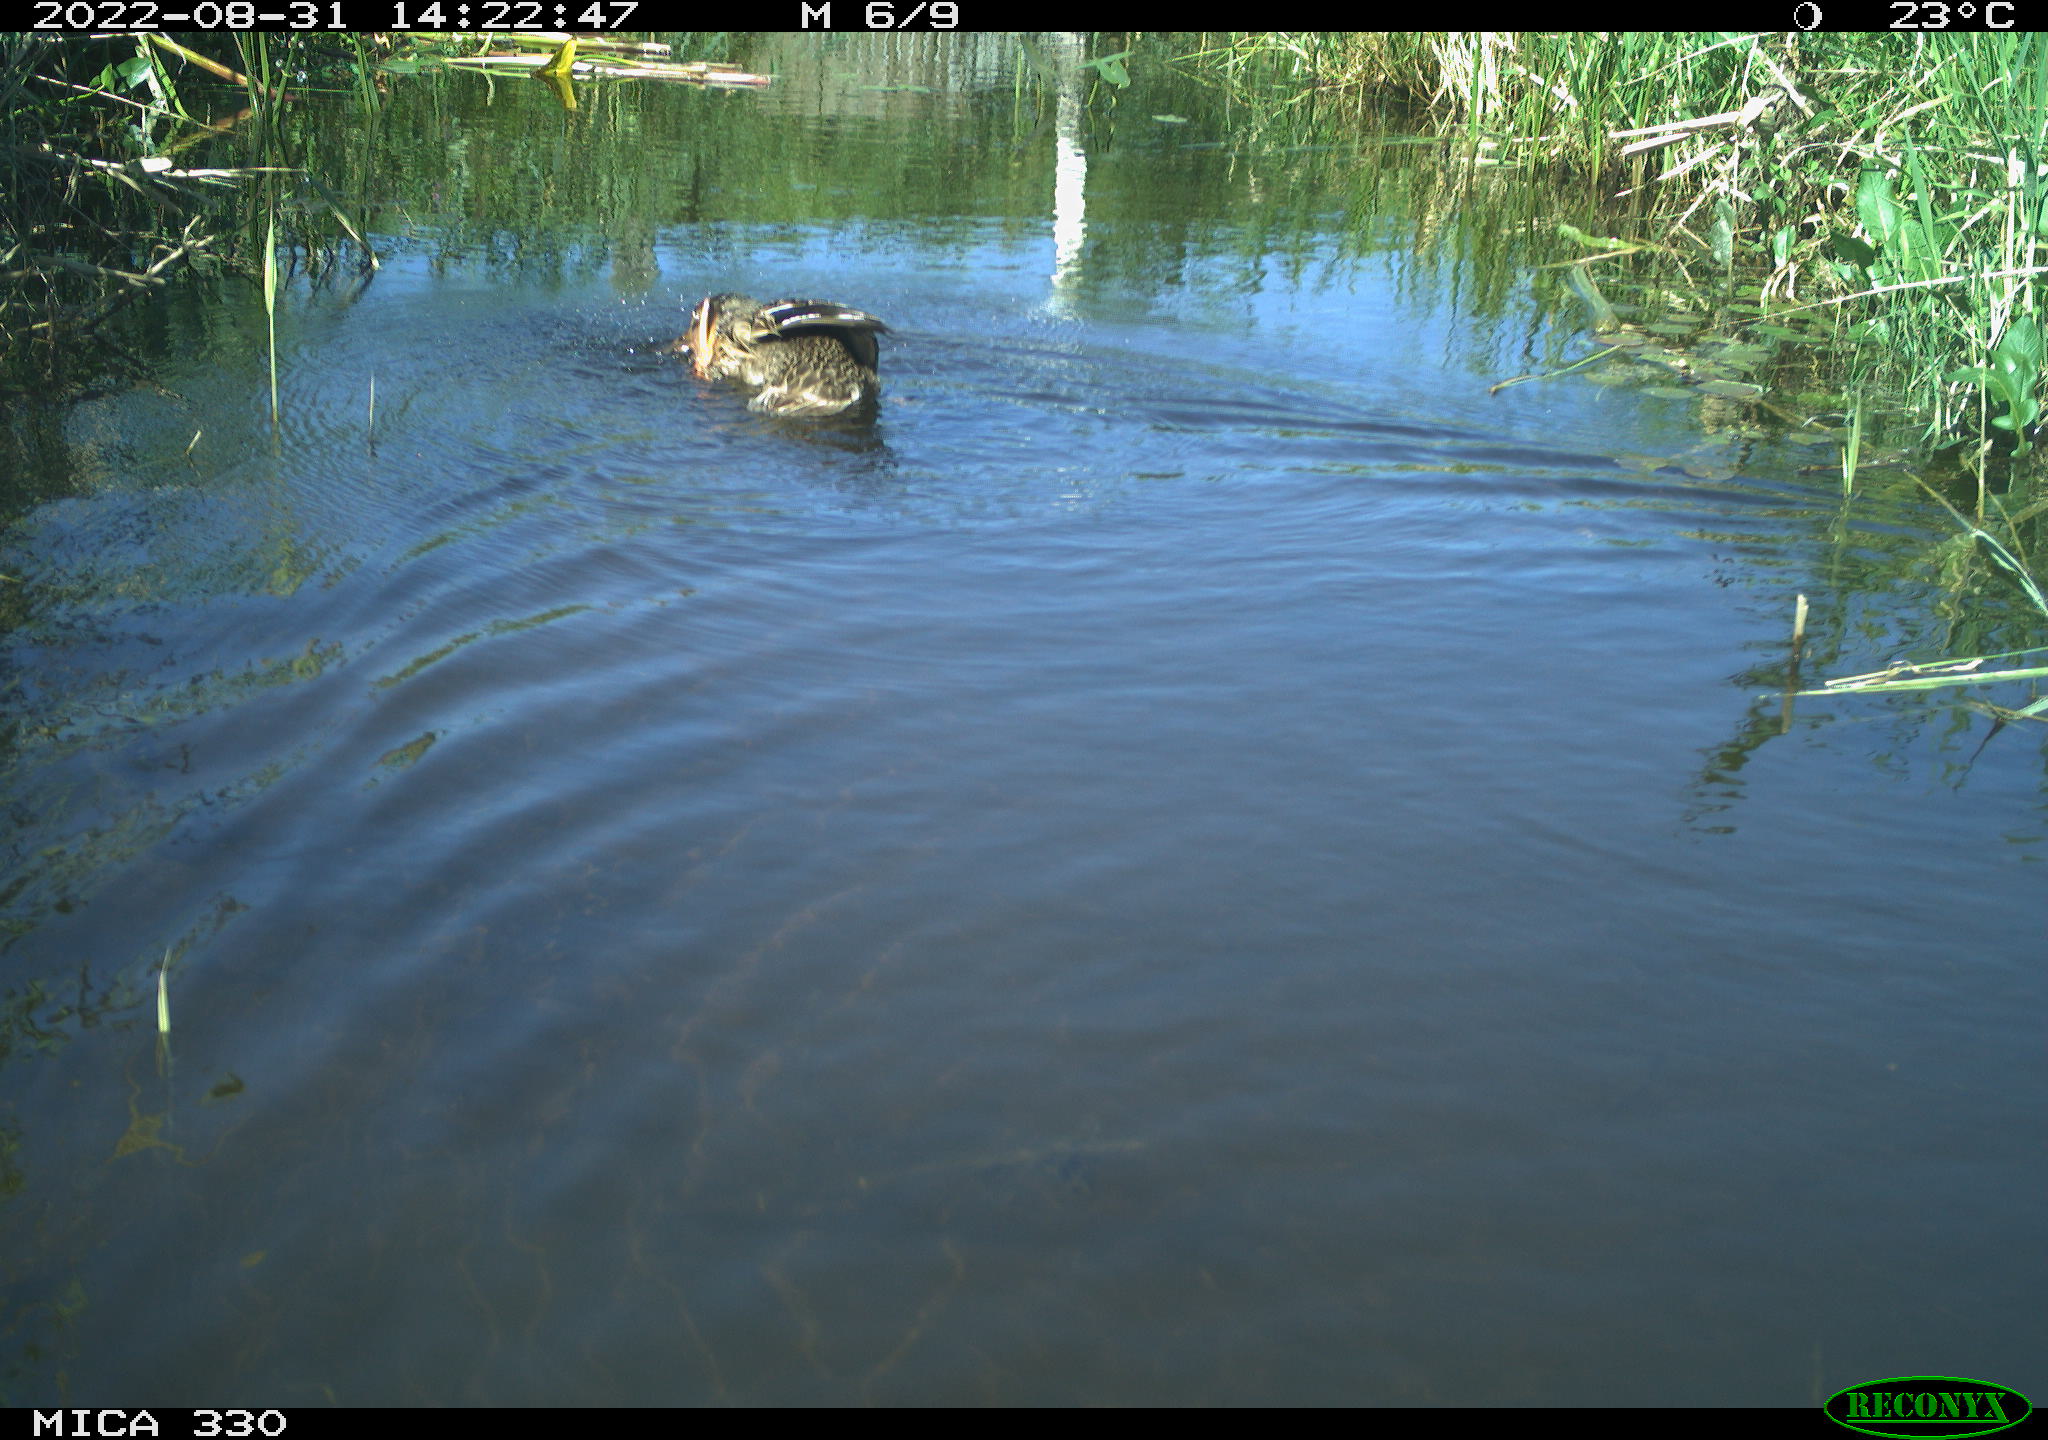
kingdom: Animalia
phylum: Chordata
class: Aves
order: Anseriformes
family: Anatidae
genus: Anas
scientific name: Anas platyrhynchos
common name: Mallard
